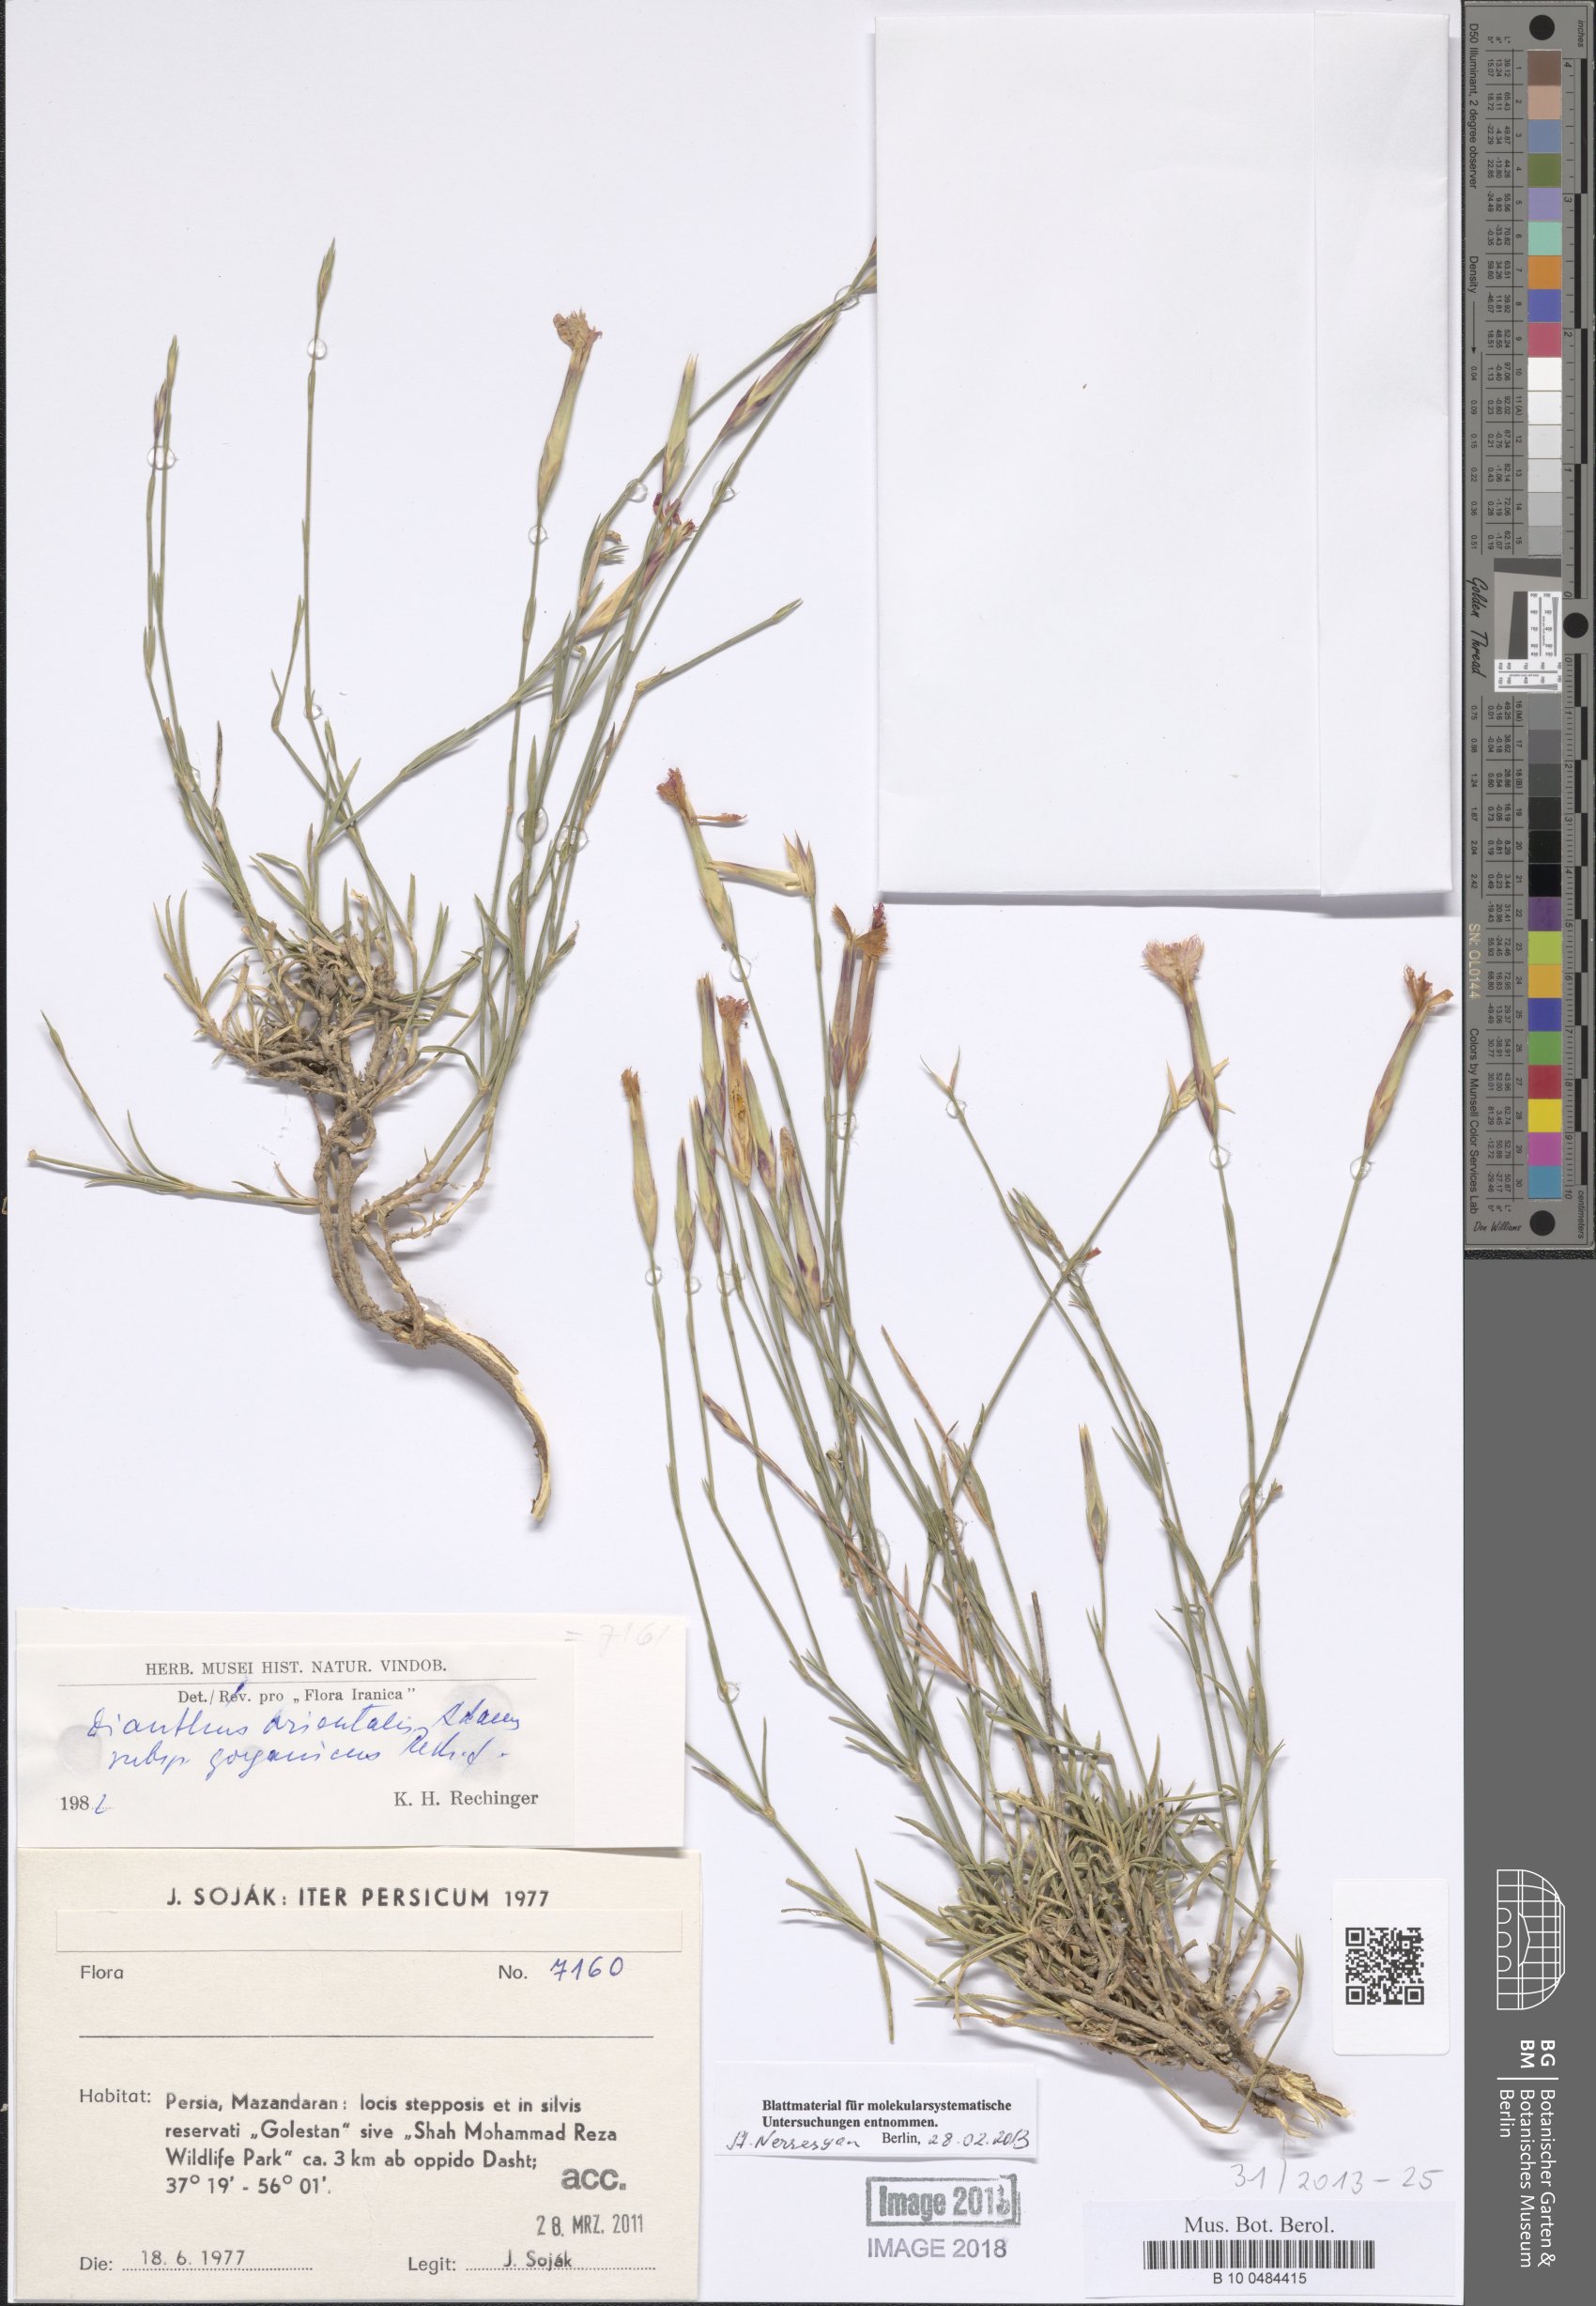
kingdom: Plantae
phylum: Tracheophyta
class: Magnoliopsida
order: Caryophyllales
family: Caryophyllaceae
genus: Dianthus
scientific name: Dianthus orientalis
